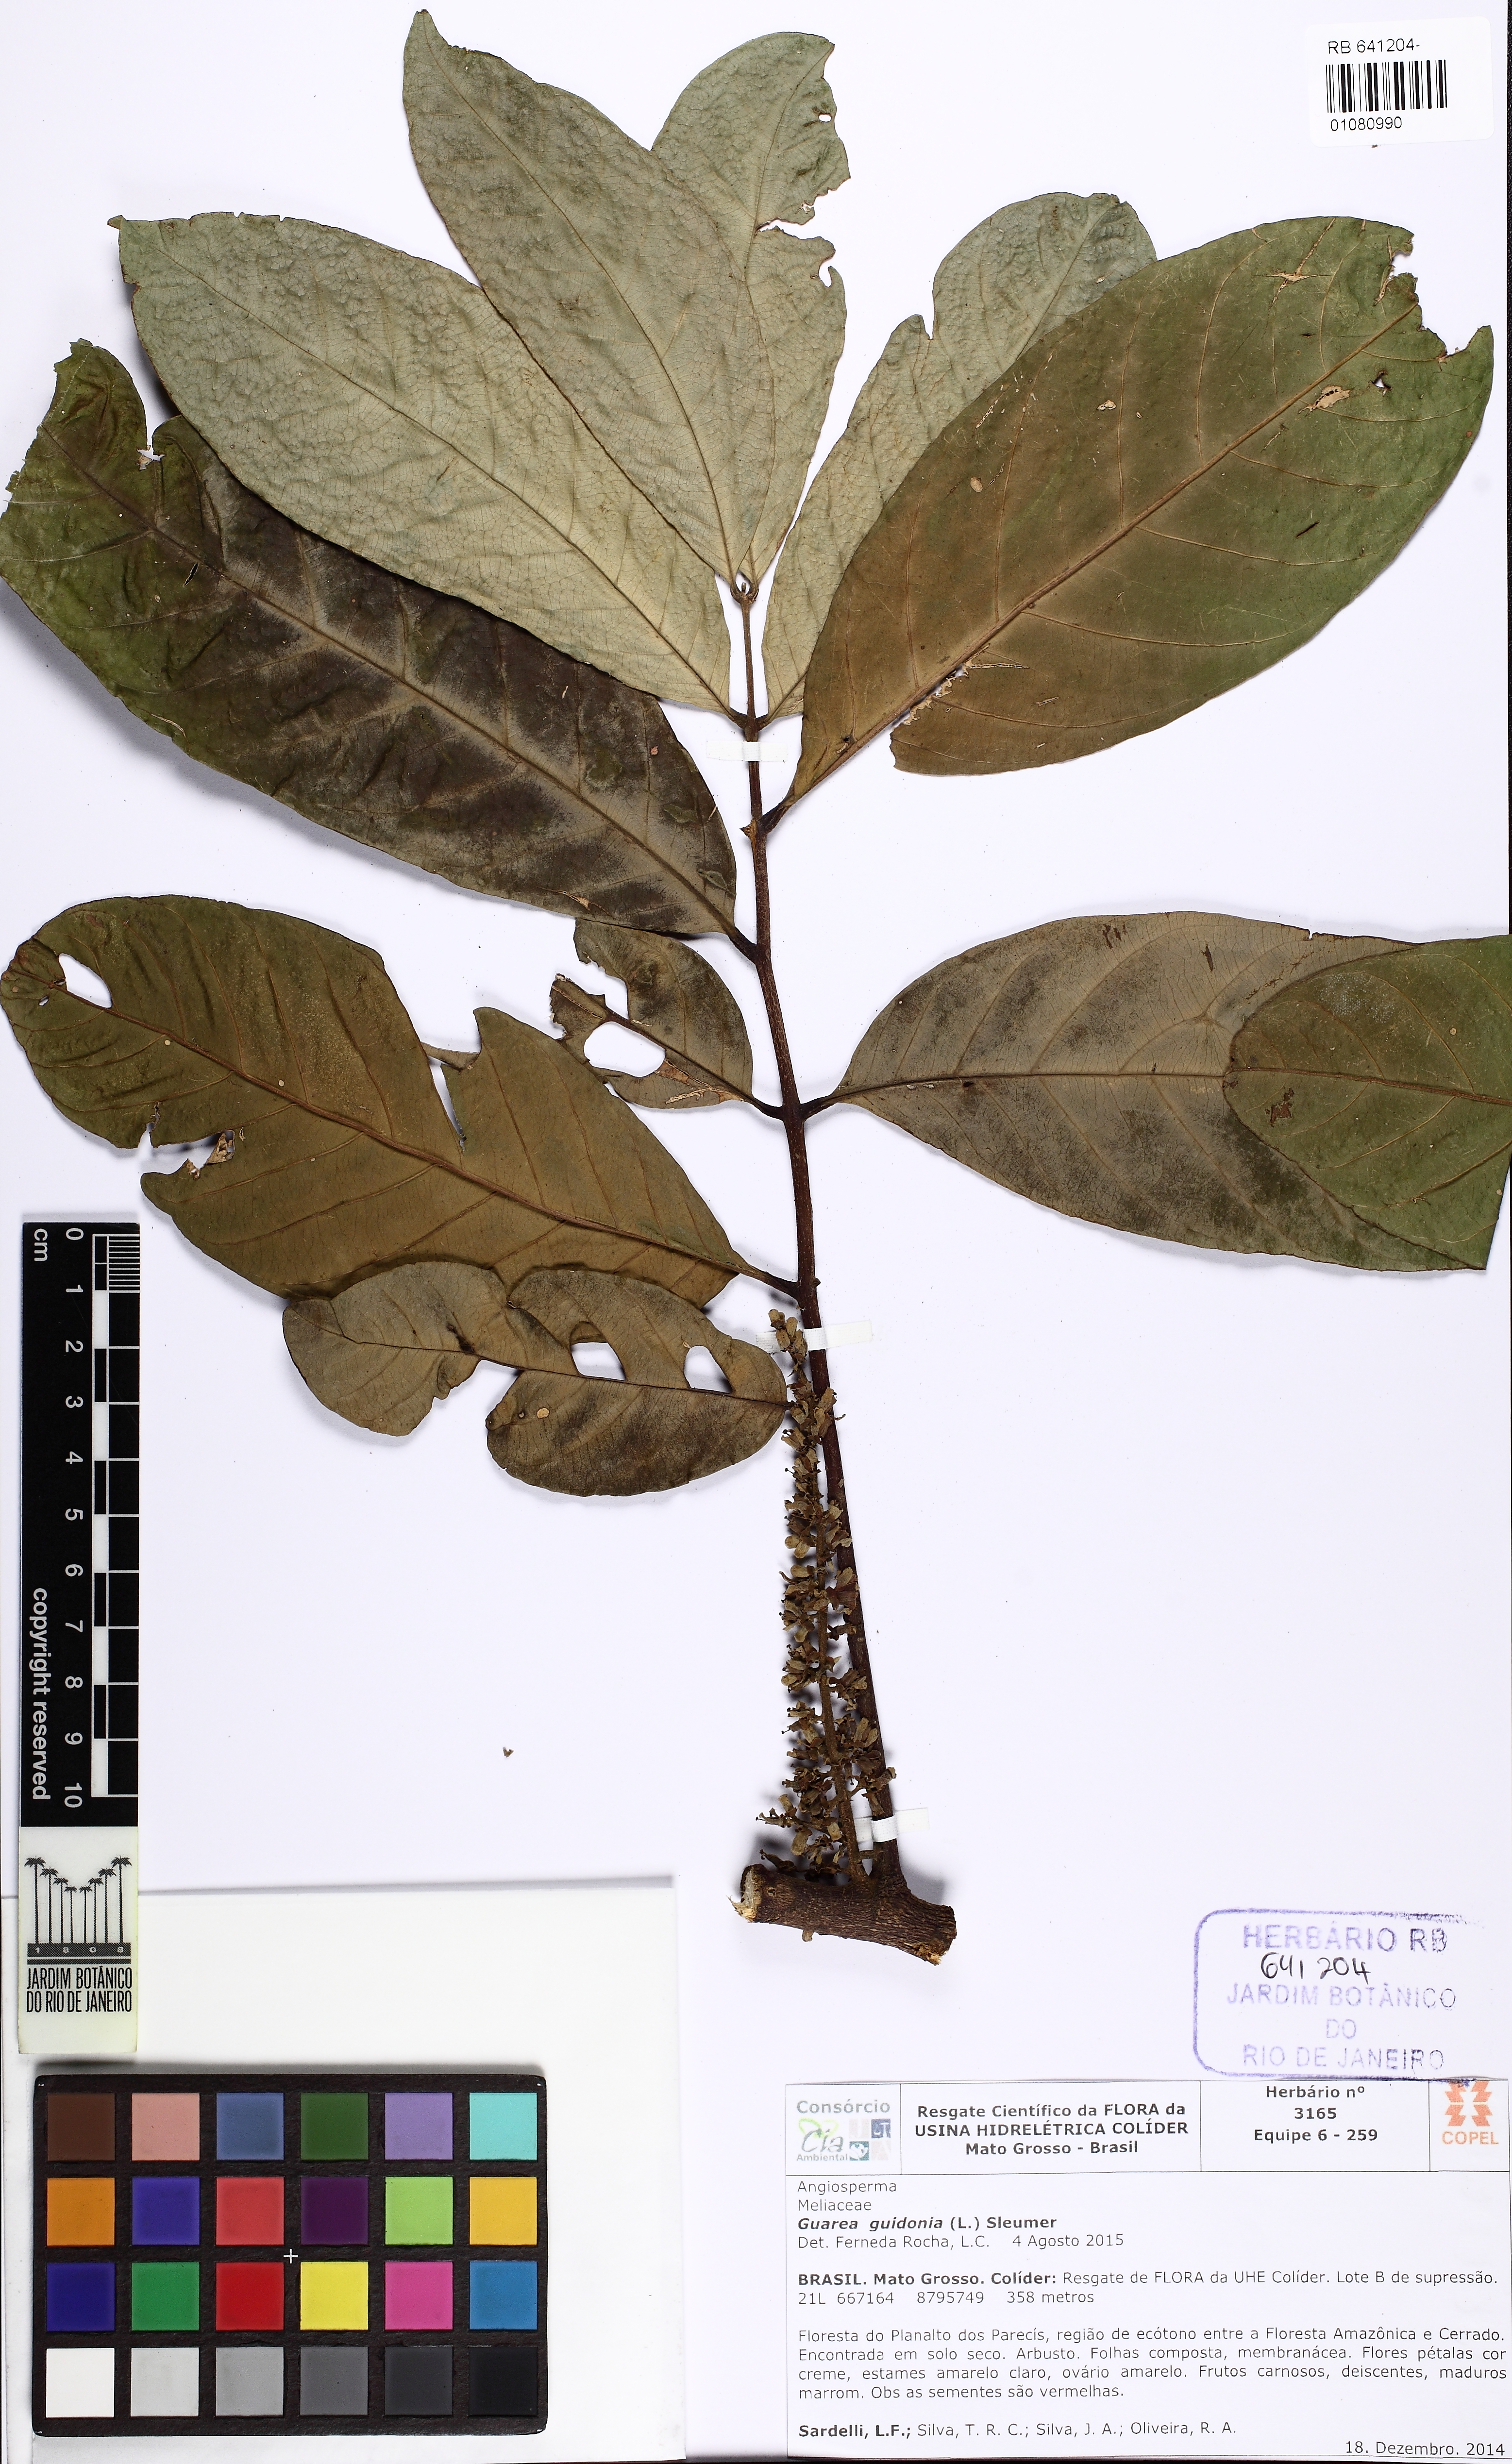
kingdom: Plantae
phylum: Tracheophyta
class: Magnoliopsida
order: Sapindales
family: Meliaceae
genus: Guarea
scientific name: Guarea guidonia
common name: American muskwood
